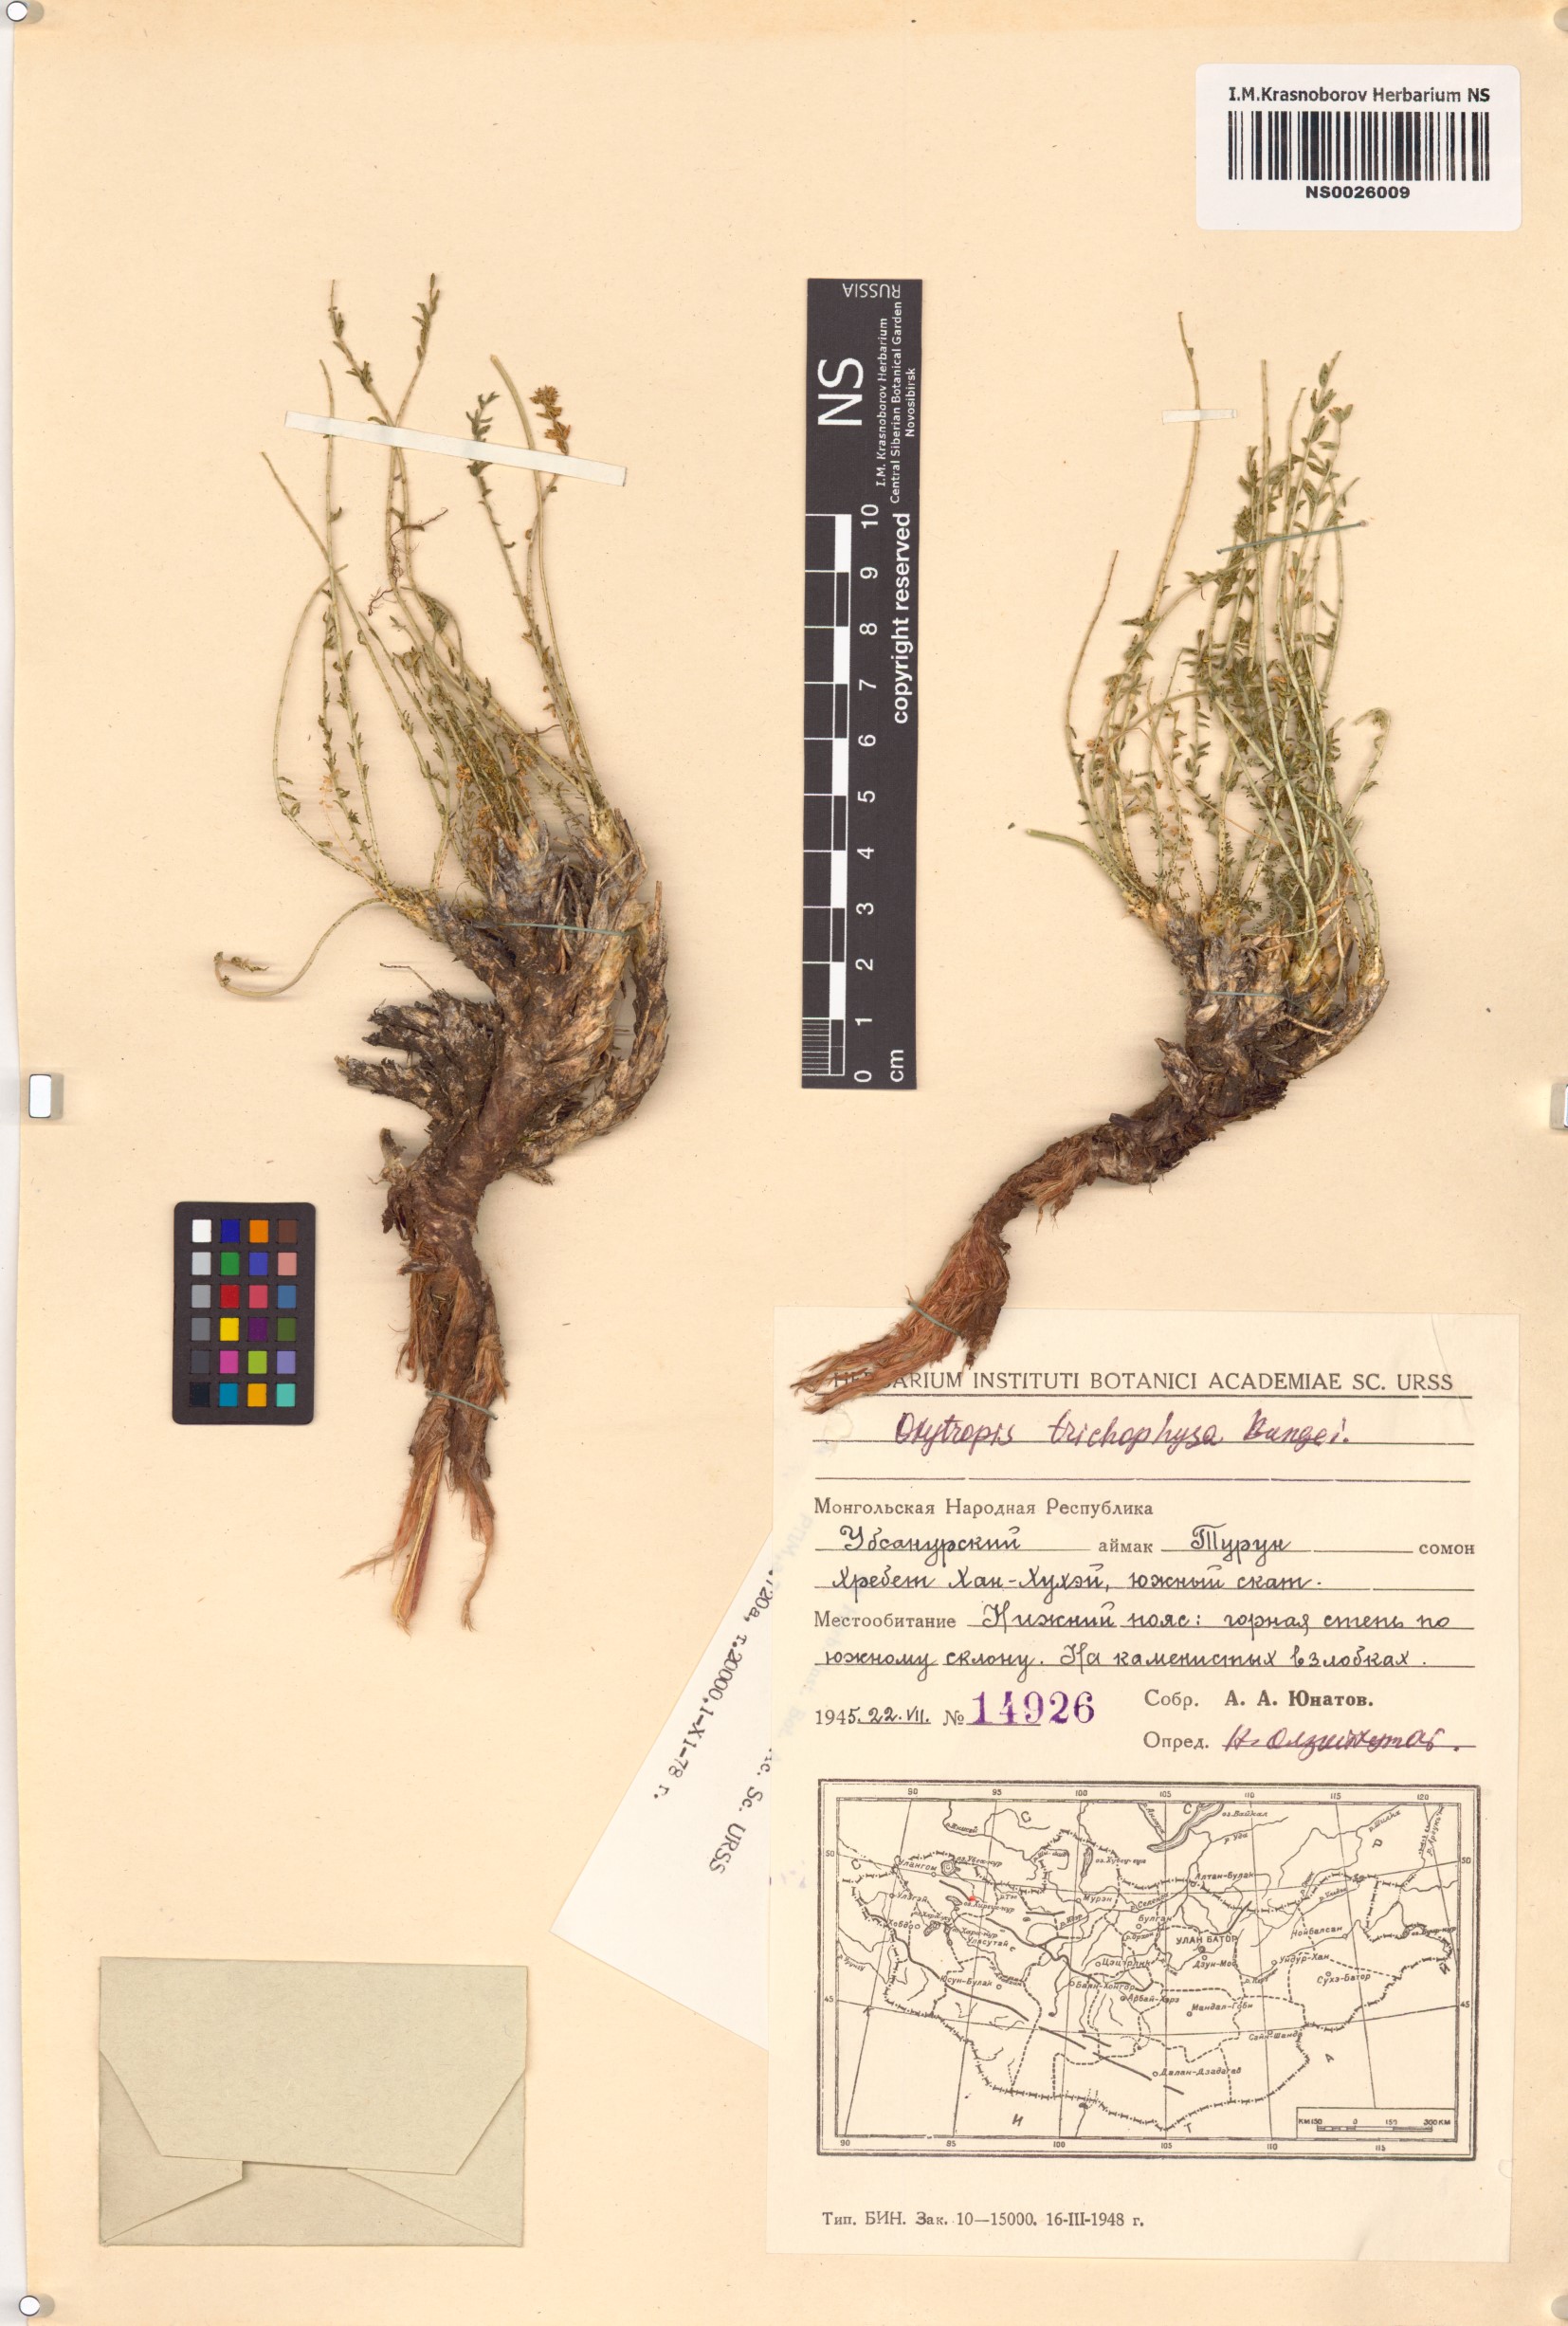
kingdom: Plantae
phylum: Tracheophyta
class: Magnoliopsida
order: Fabales
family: Fabaceae
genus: Oxytropis
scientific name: Oxytropis trichophysa
